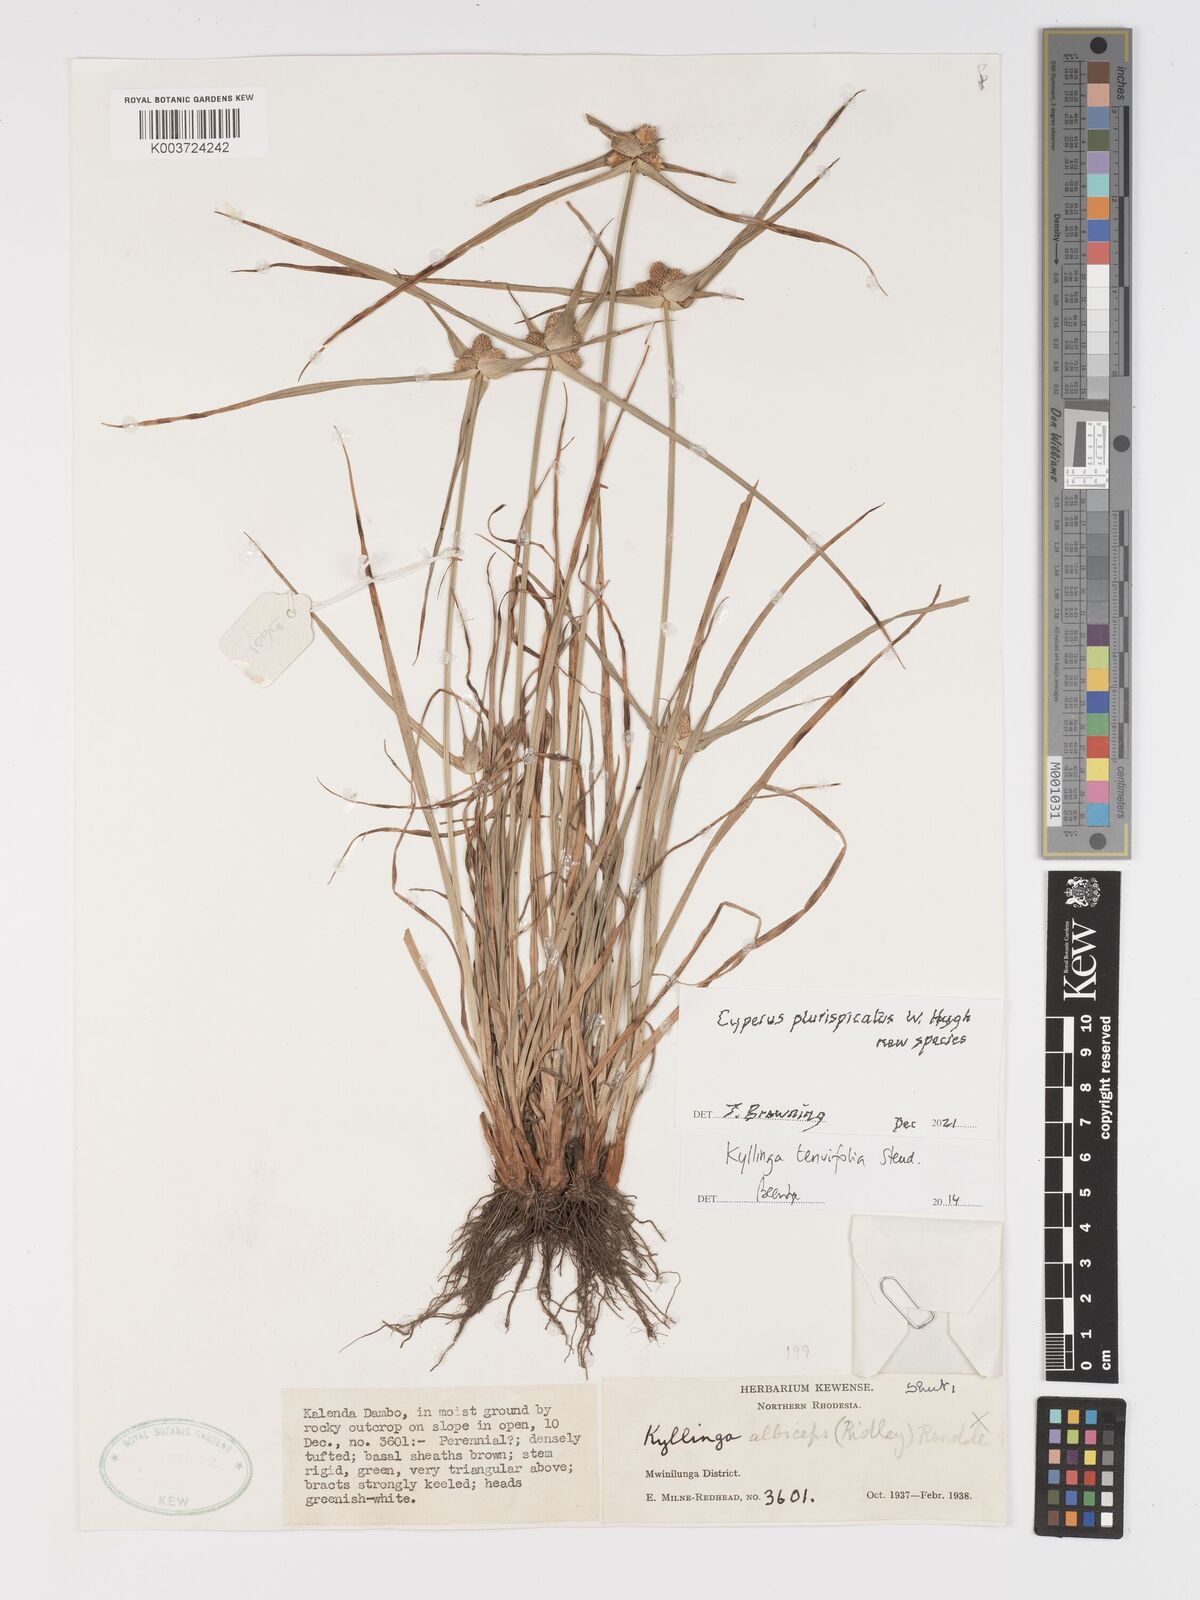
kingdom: Plantae
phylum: Tracheophyta
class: Liliopsida
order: Poales
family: Cyperaceae
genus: Cyperus
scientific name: Cyperus
